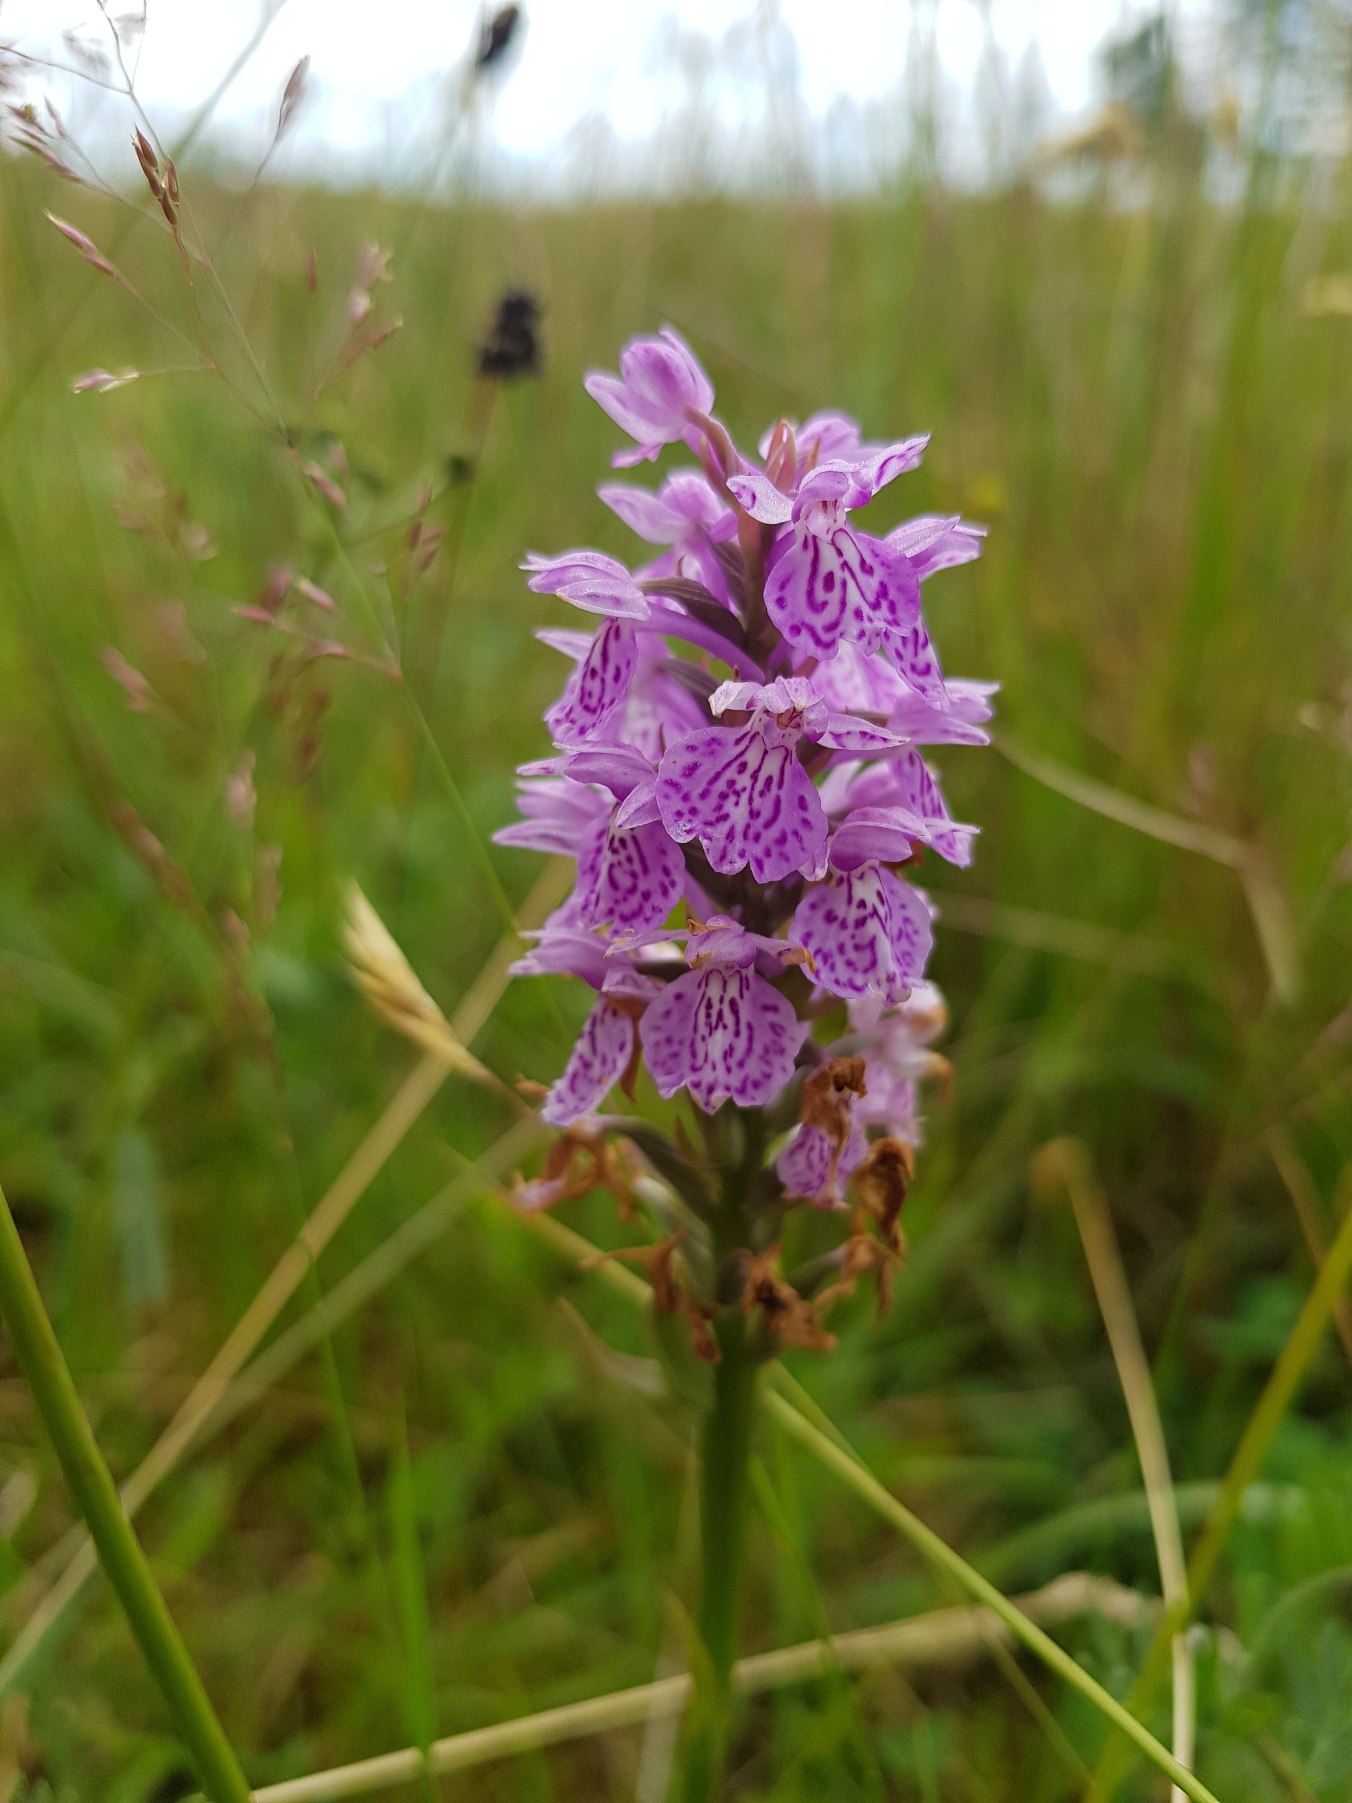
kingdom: Plantae
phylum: Tracheophyta
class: Liliopsida
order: Asparagales
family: Orchidaceae
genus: Dactylorhiza
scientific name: Dactylorhiza maculata
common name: Plettet gøgeurt
